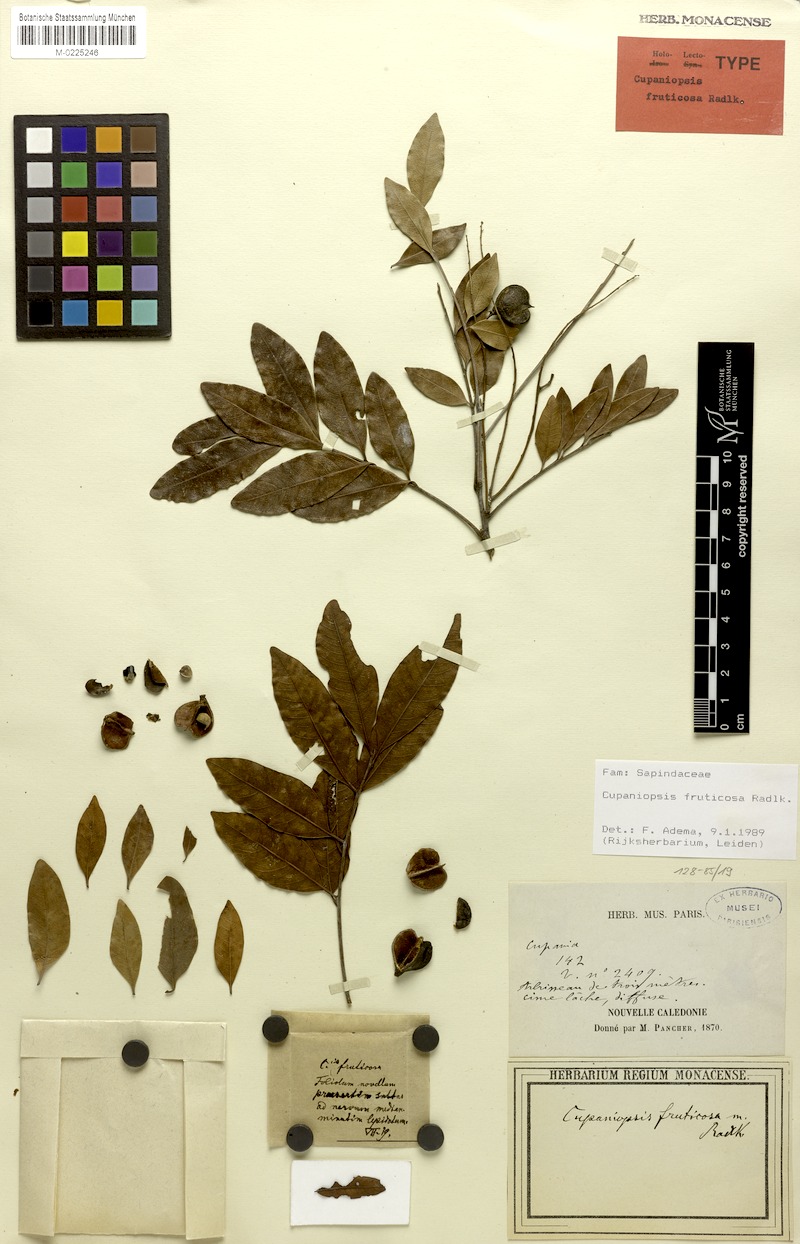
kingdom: Plantae
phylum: Tracheophyta
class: Magnoliopsida
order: Sapindales
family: Sapindaceae
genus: Lepidocupania
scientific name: Lepidocupania fruticosa
